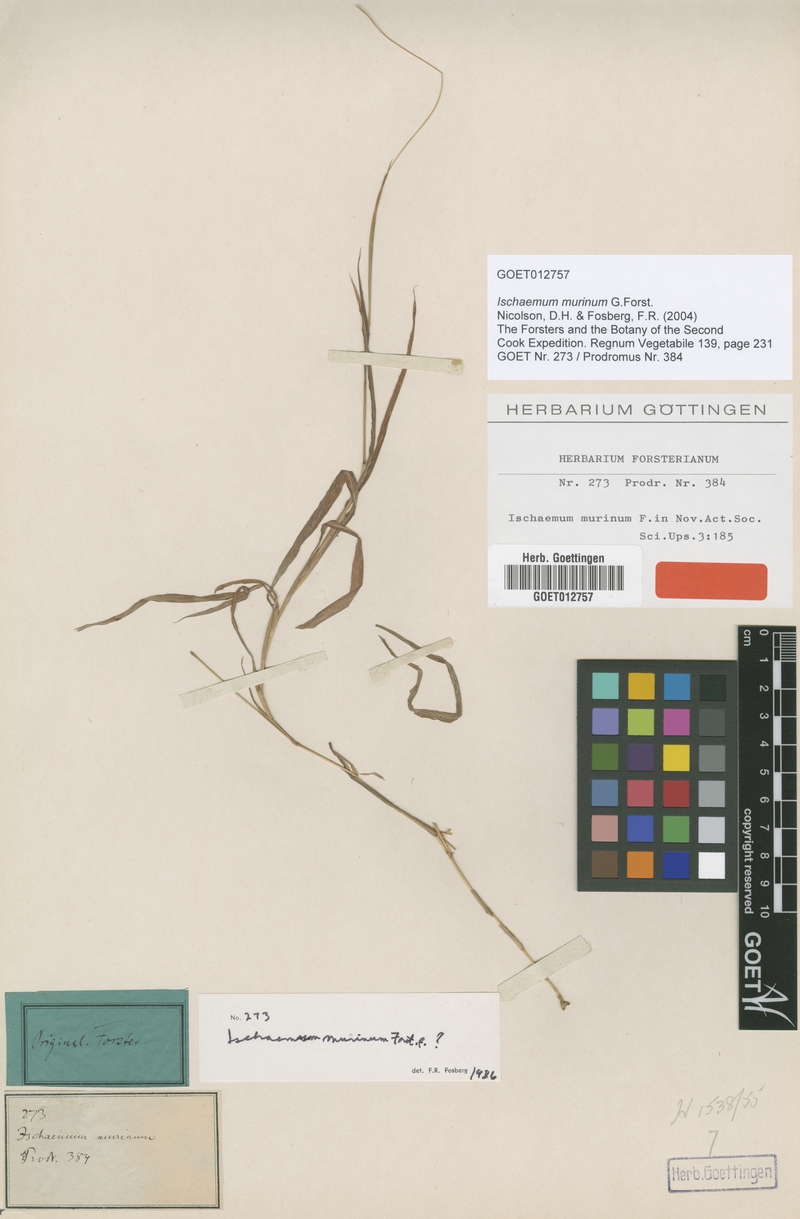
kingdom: Plantae
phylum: Tracheophyta
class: Liliopsida
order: Poales
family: Poaceae
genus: Ischaemum
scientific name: Ischaemum murinum
